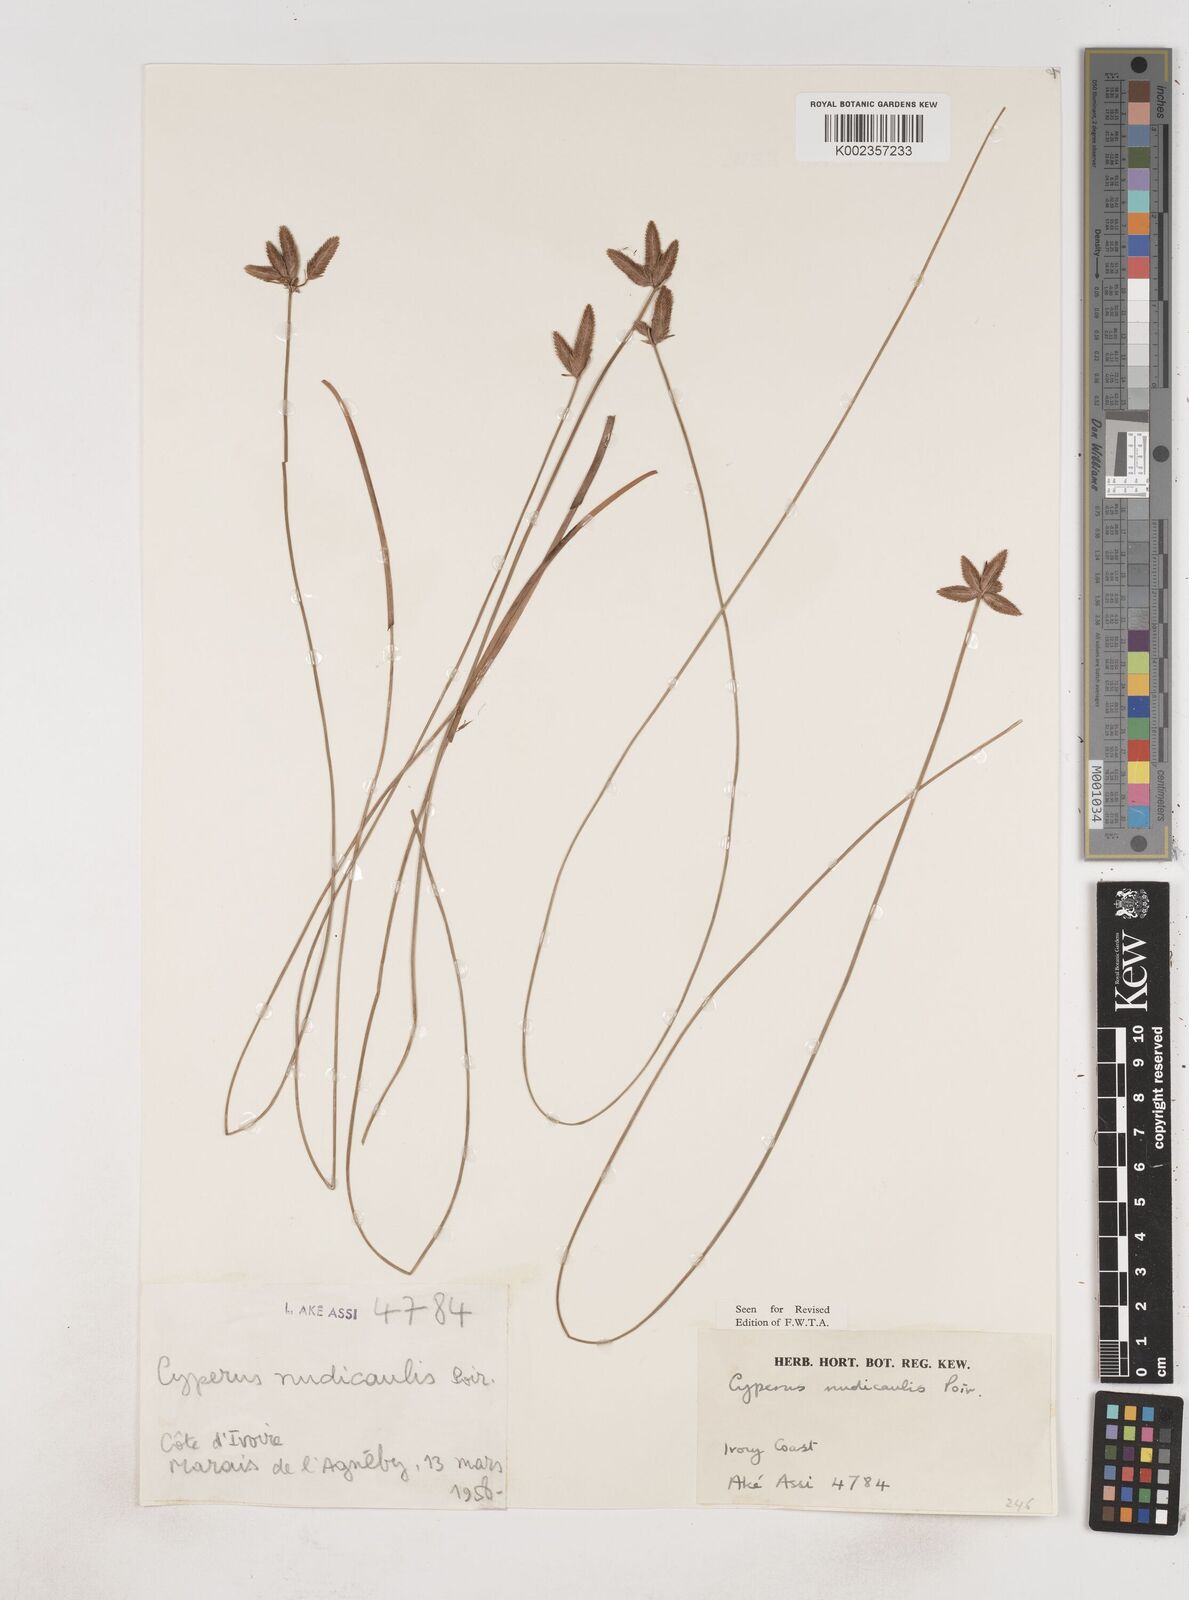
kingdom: Plantae
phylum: Tracheophyta
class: Liliopsida
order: Poales
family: Cyperaceae
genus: Cyperus
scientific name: Cyperus pectinatus
